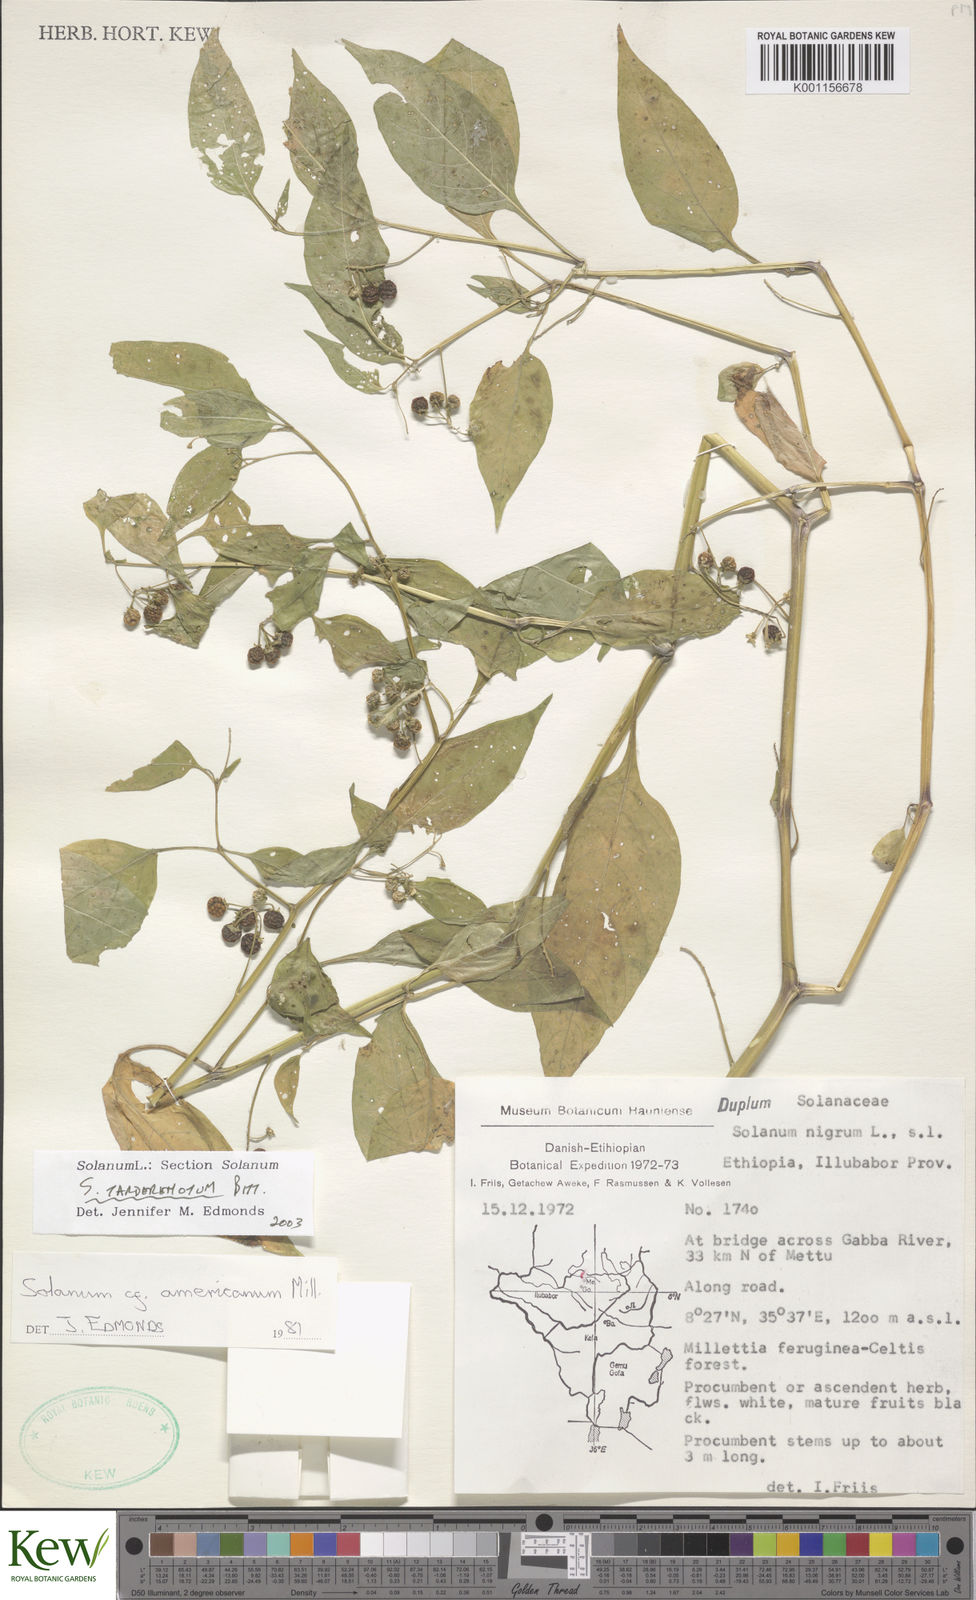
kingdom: Plantae
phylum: Tracheophyta
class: Magnoliopsida
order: Solanales
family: Solanaceae
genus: Solanum
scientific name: Solanum tarderemotum
